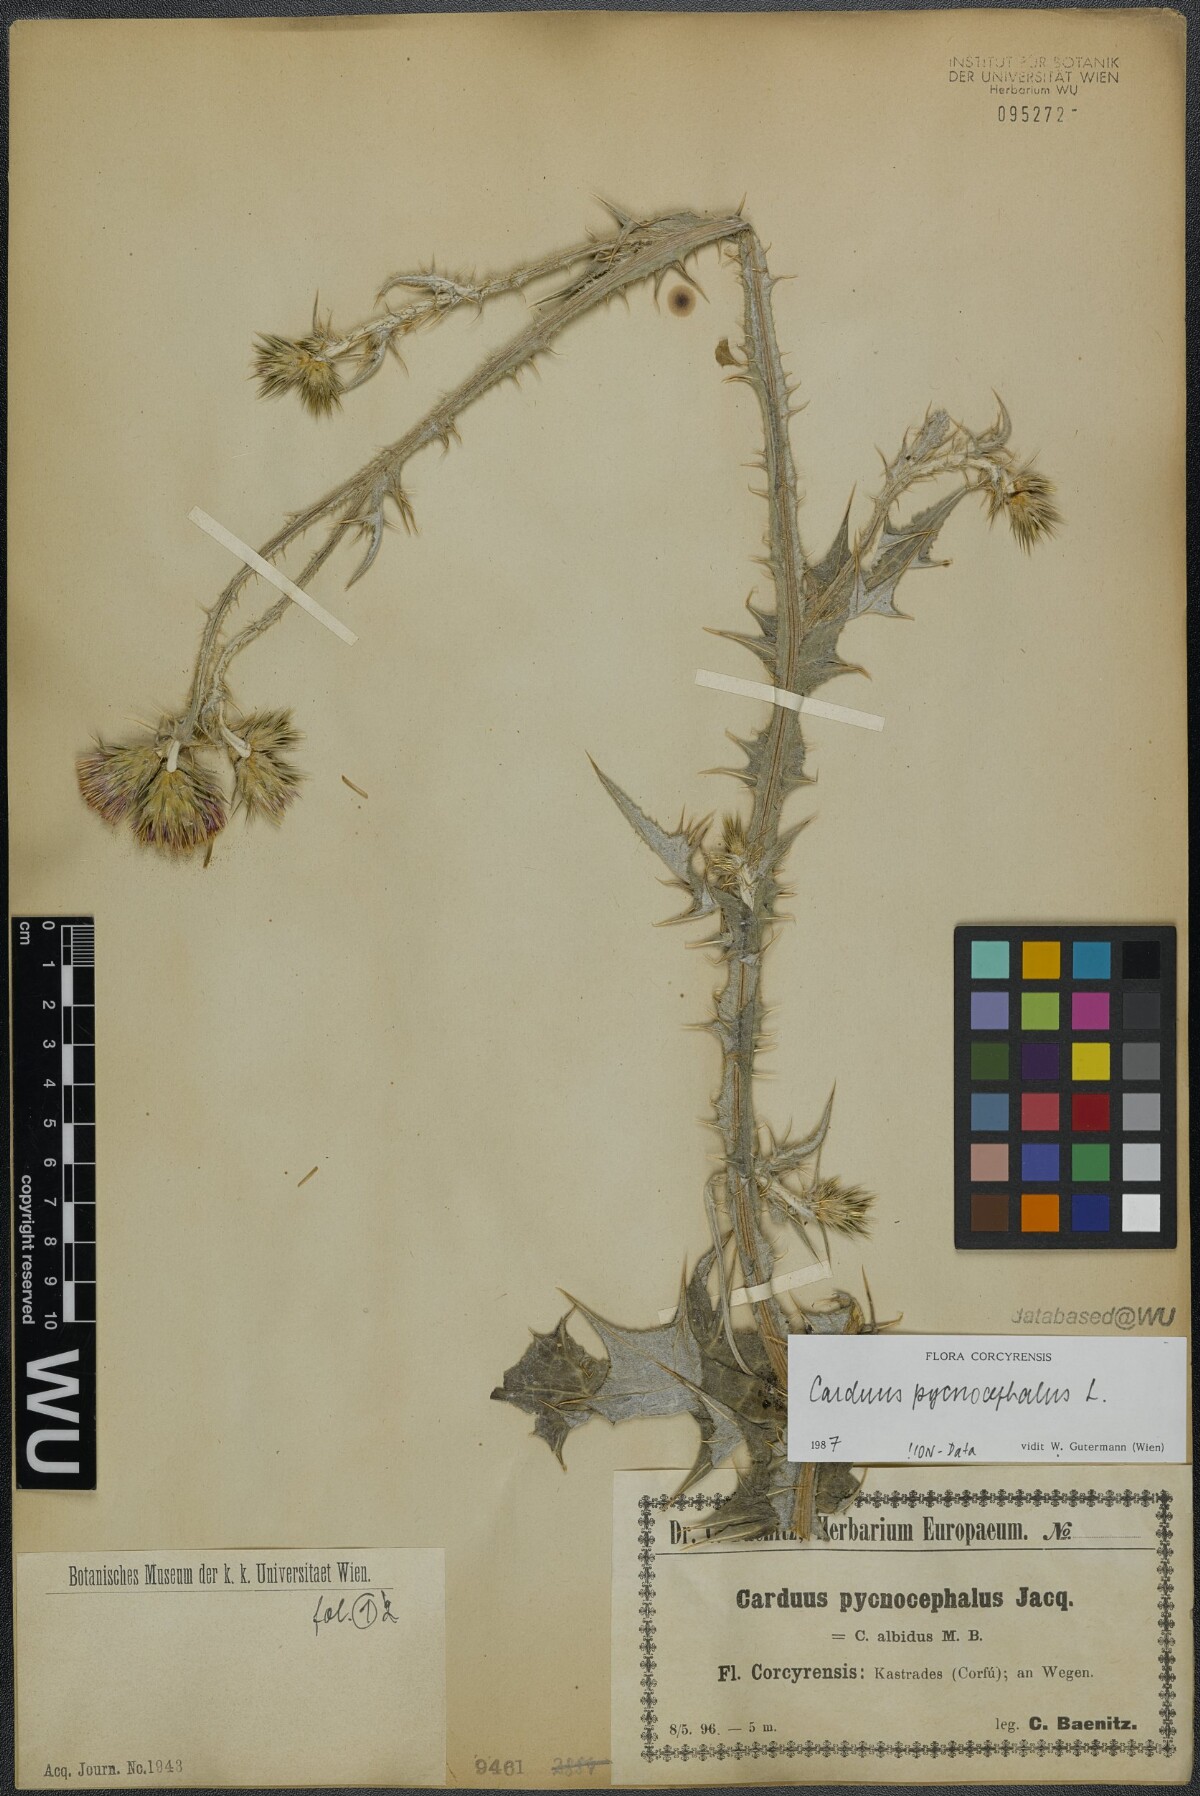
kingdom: Plantae
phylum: Tracheophyta
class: Magnoliopsida
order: Asterales
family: Asteraceae
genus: Carduus
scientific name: Carduus pycnocephalus
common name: Plymouth thistle
